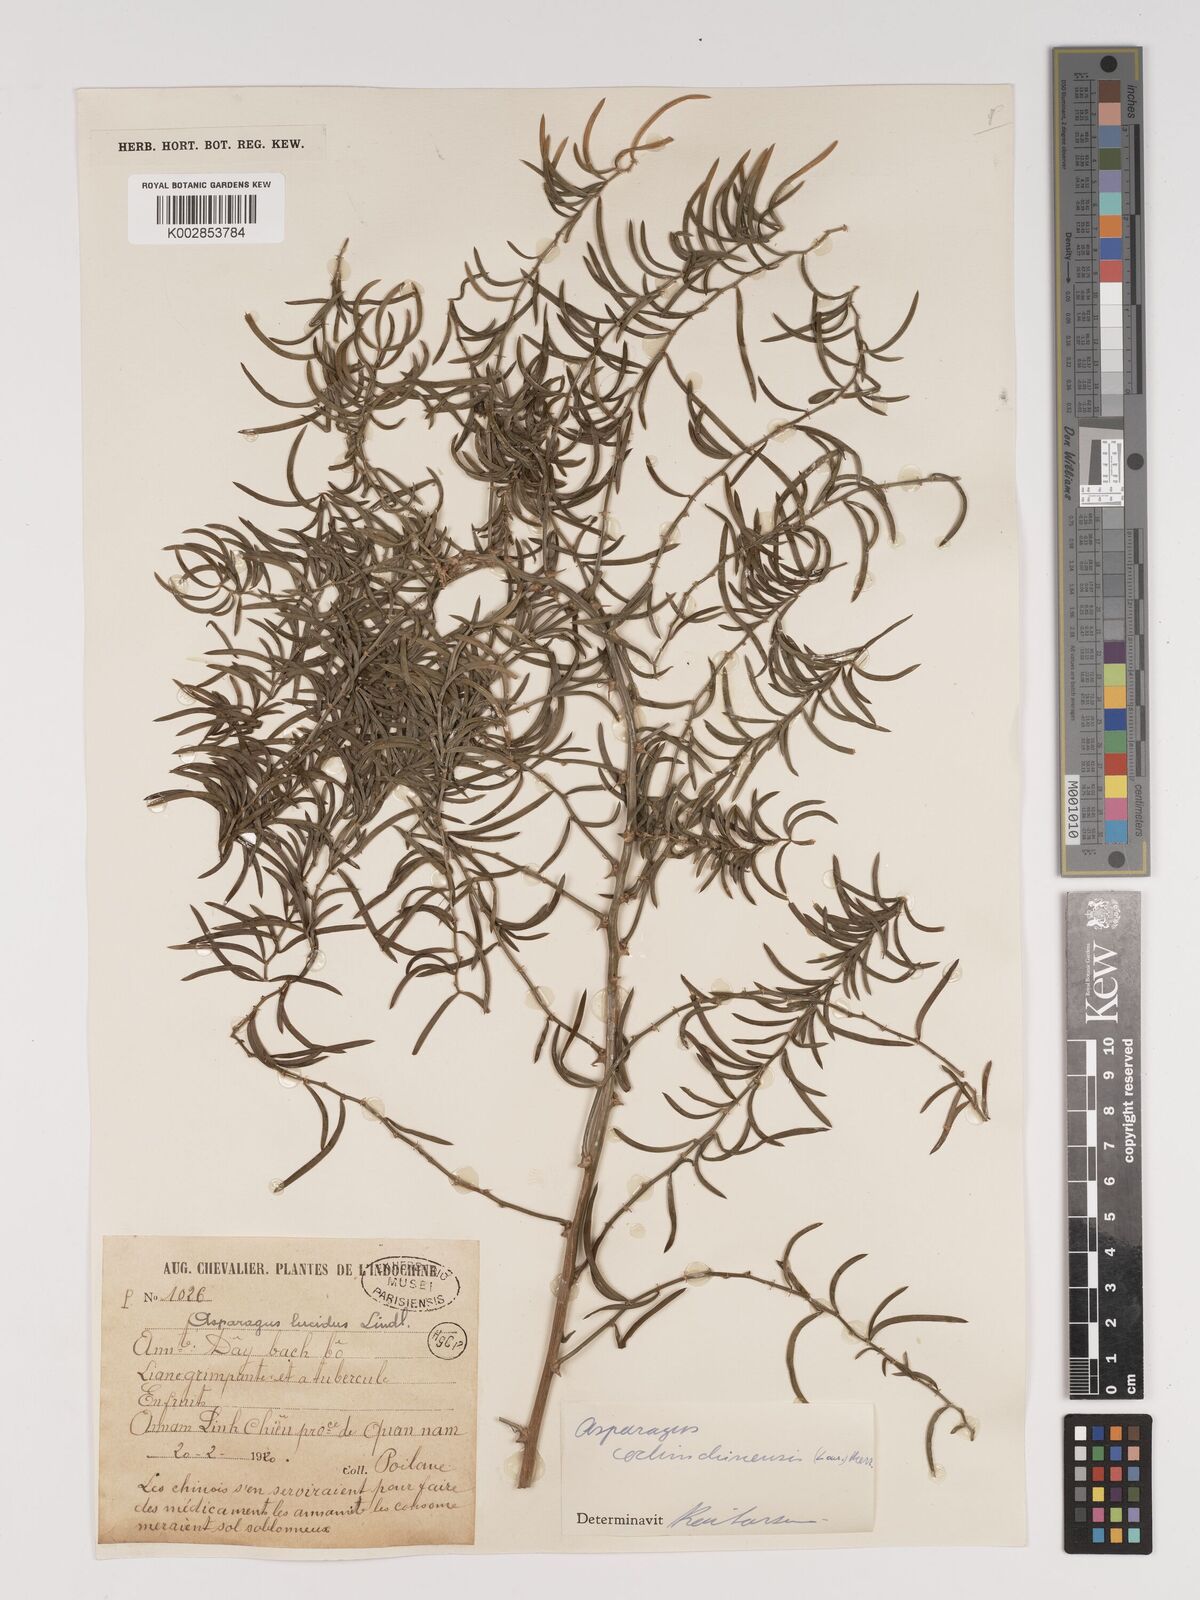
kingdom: Plantae
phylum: Tracheophyta
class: Liliopsida
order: Asparagales
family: Asparagaceae
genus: Asparagus
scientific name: Asparagus cochinchinensis
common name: Chinese asparagus
